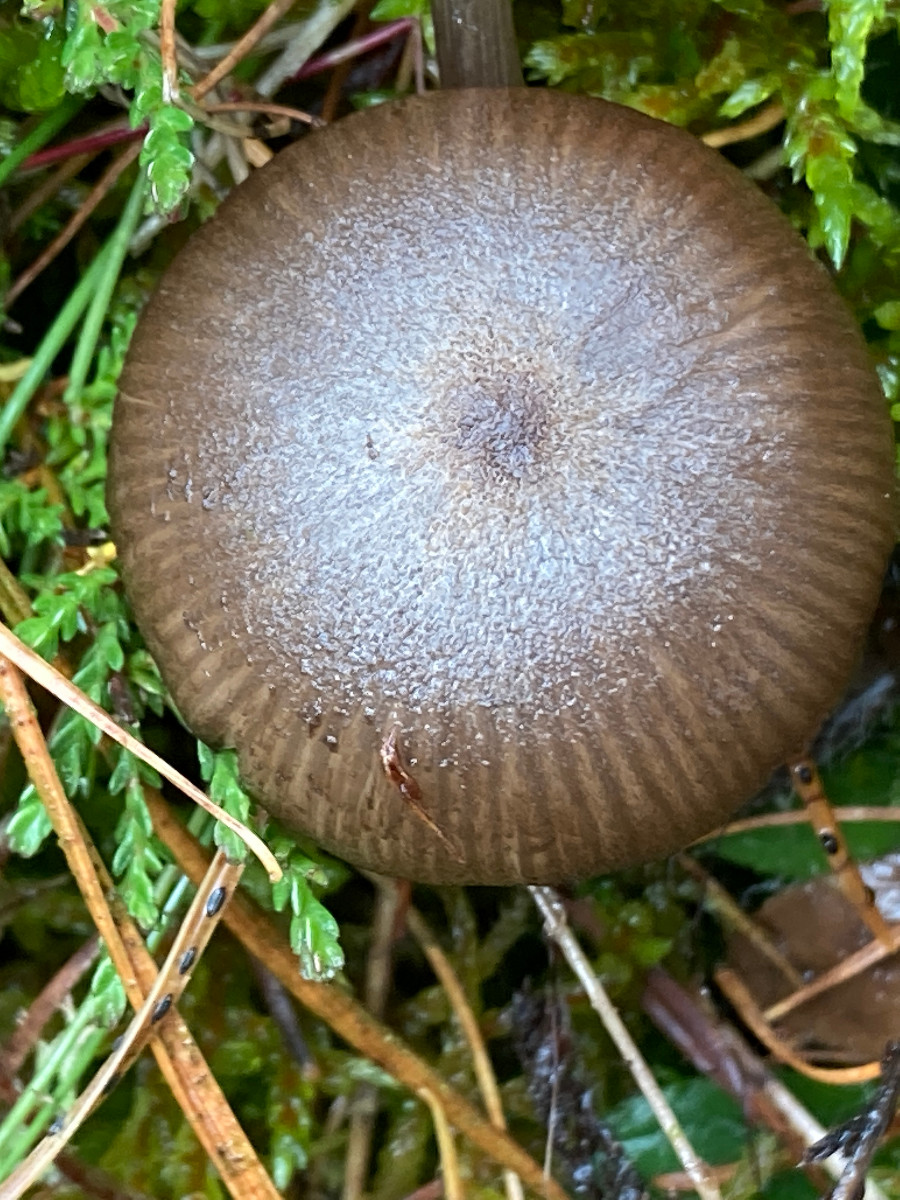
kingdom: Fungi
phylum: Basidiomycota
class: Agaricomycetes
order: Agaricales
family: Entolomataceae
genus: Entoloma
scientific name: Entoloma jubatum
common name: ruskællet rødblad
